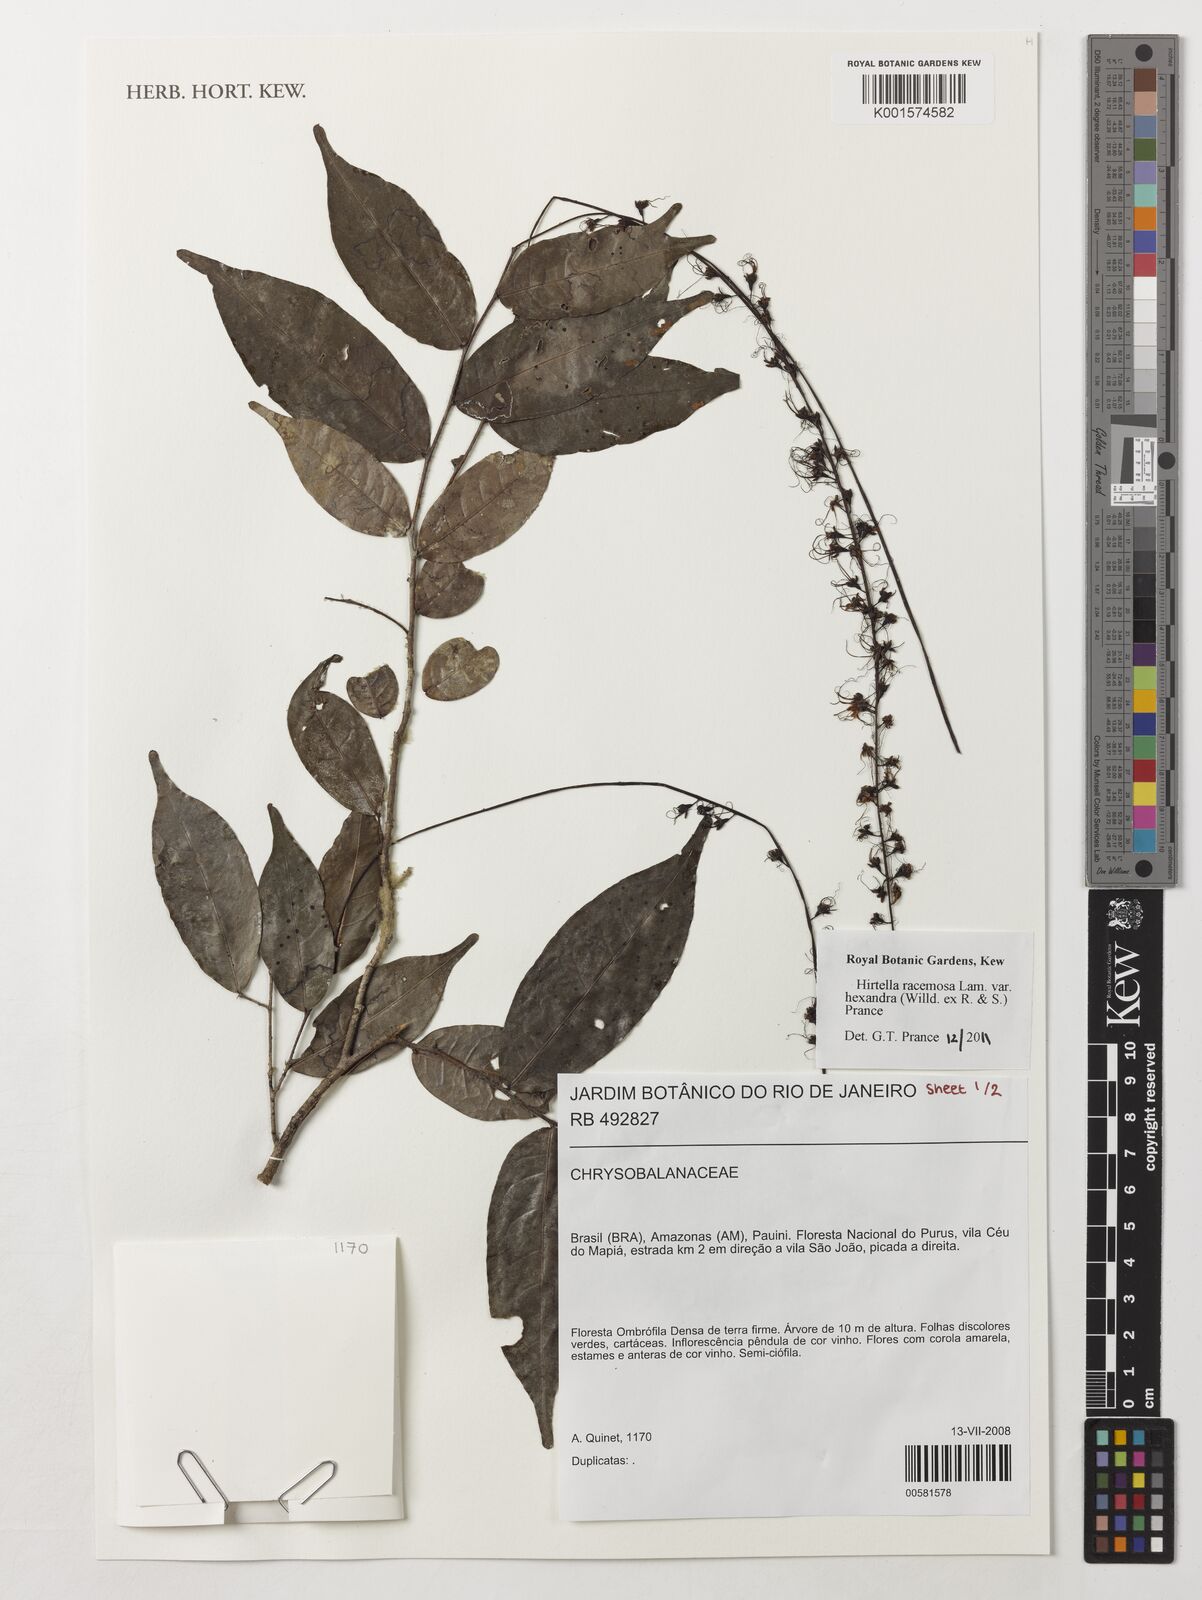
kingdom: Plantae
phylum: Tracheophyta
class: Magnoliopsida
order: Malpighiales
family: Chrysobalanaceae
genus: Hirtella
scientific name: Hirtella racemosa
